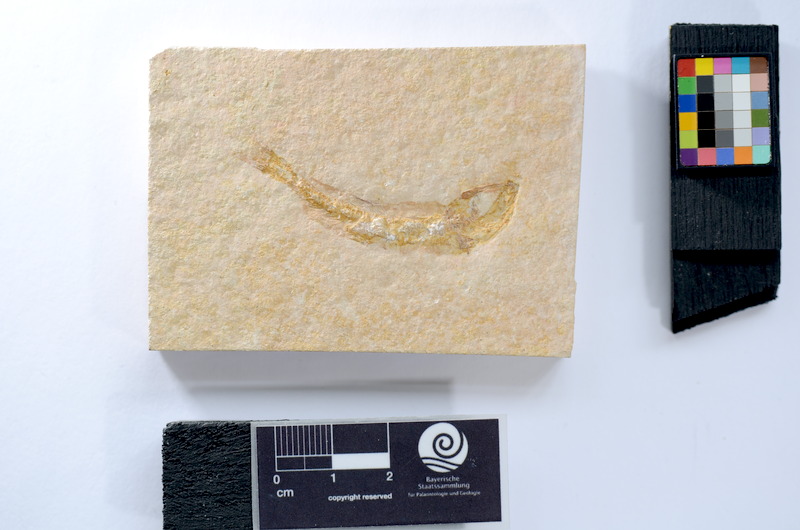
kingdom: Animalia
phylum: Chordata
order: Salmoniformes
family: Orthogonikleithridae
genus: Leptolepides
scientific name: Leptolepides sprattiformis
